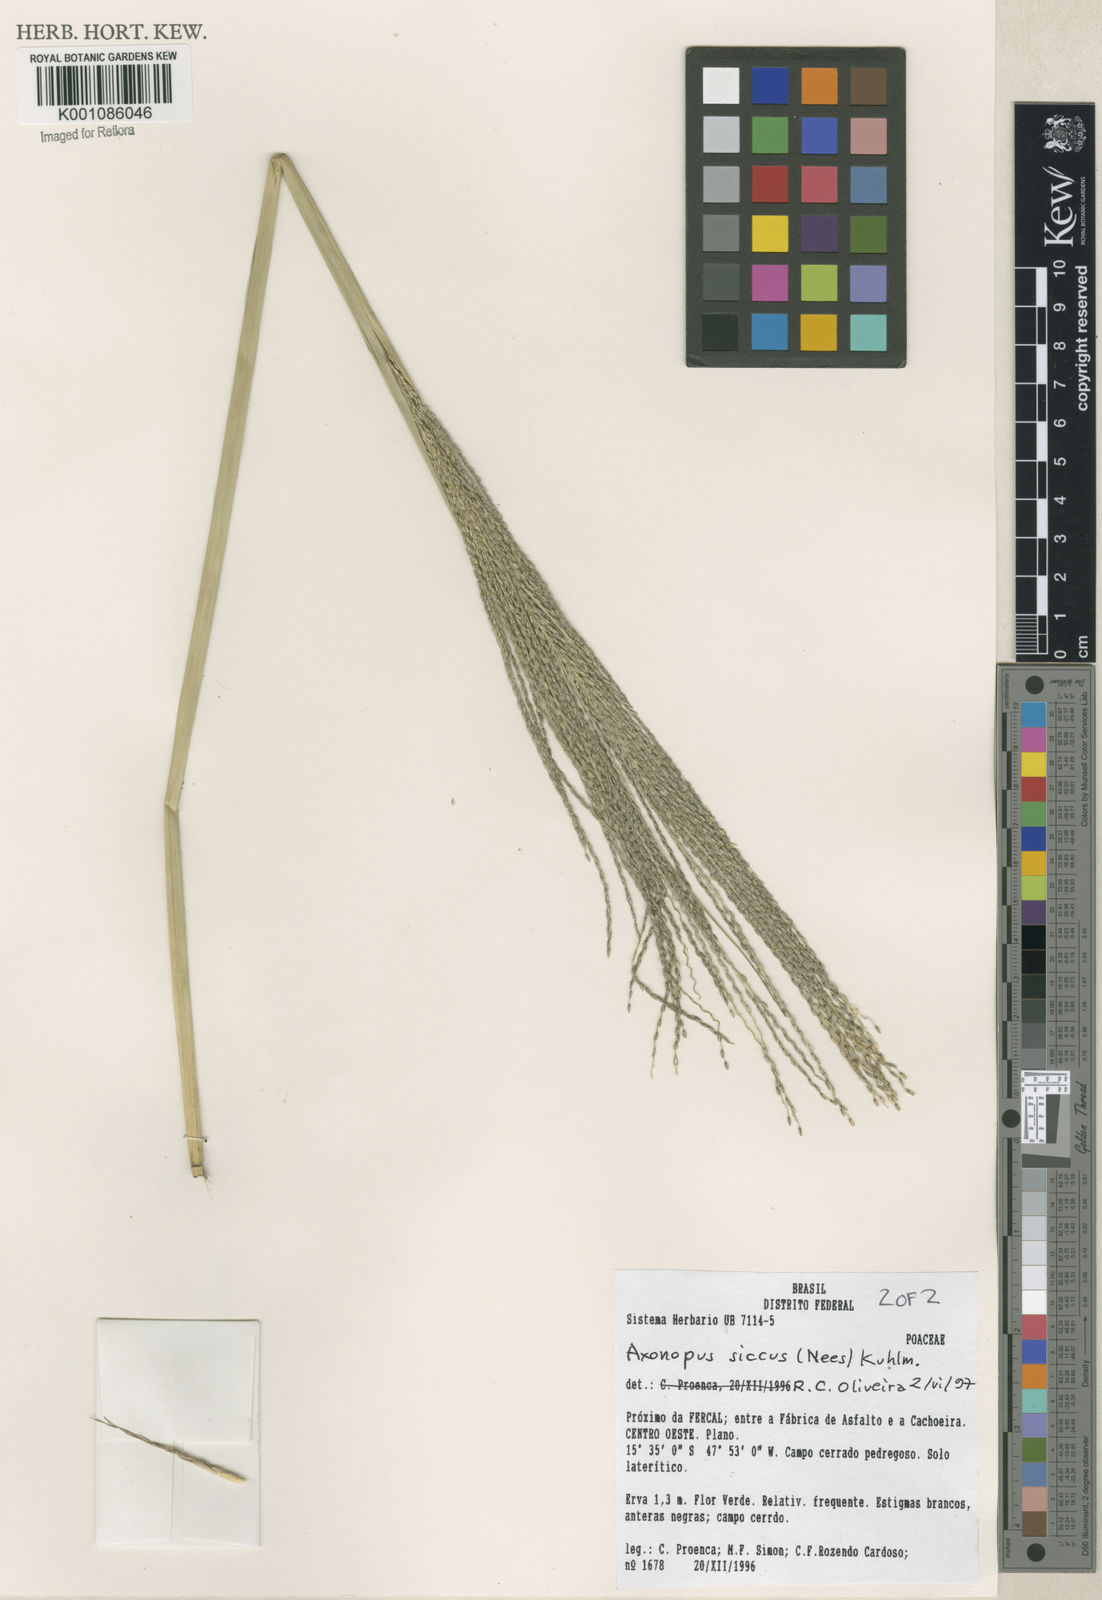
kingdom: Plantae
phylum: Tracheophyta
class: Liliopsida
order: Poales
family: Poaceae
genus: Axonopus
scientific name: Axonopus siccus
